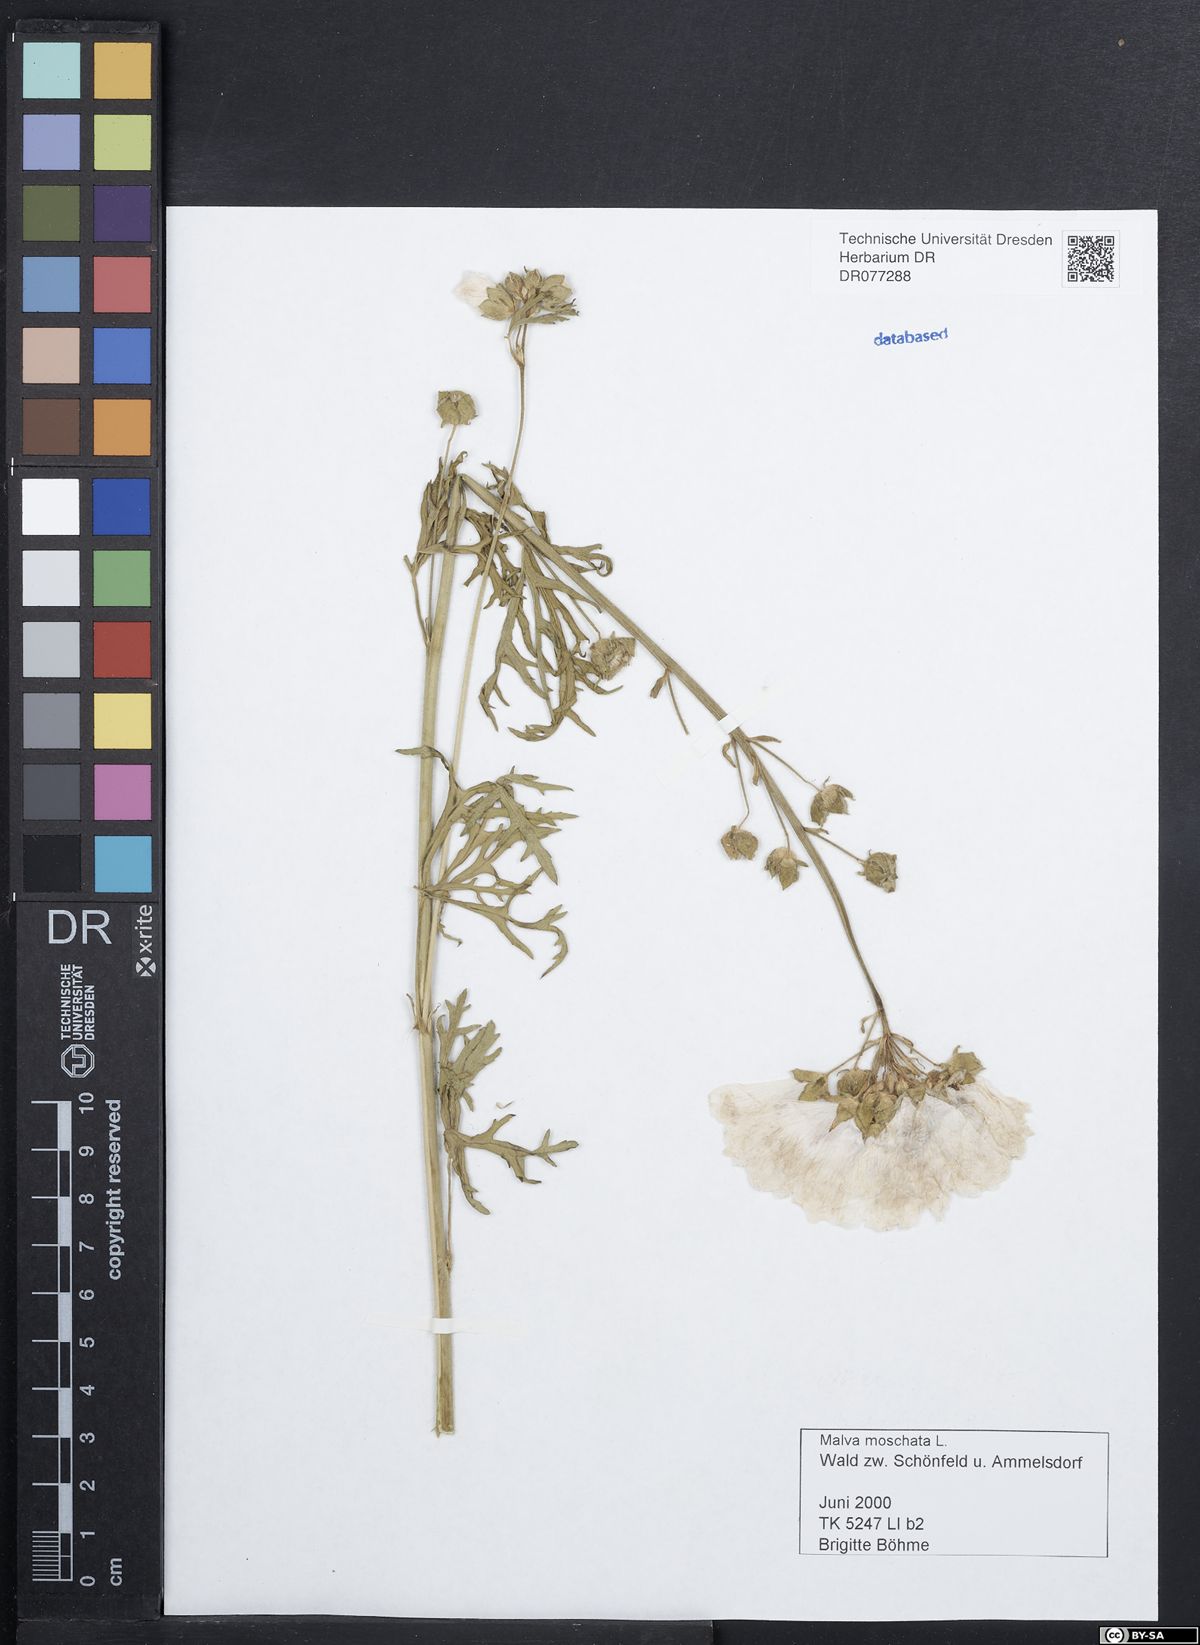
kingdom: Plantae
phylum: Tracheophyta
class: Magnoliopsida
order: Malvales
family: Malvaceae
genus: Malva
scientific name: Malva moschata
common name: Musk mallow
